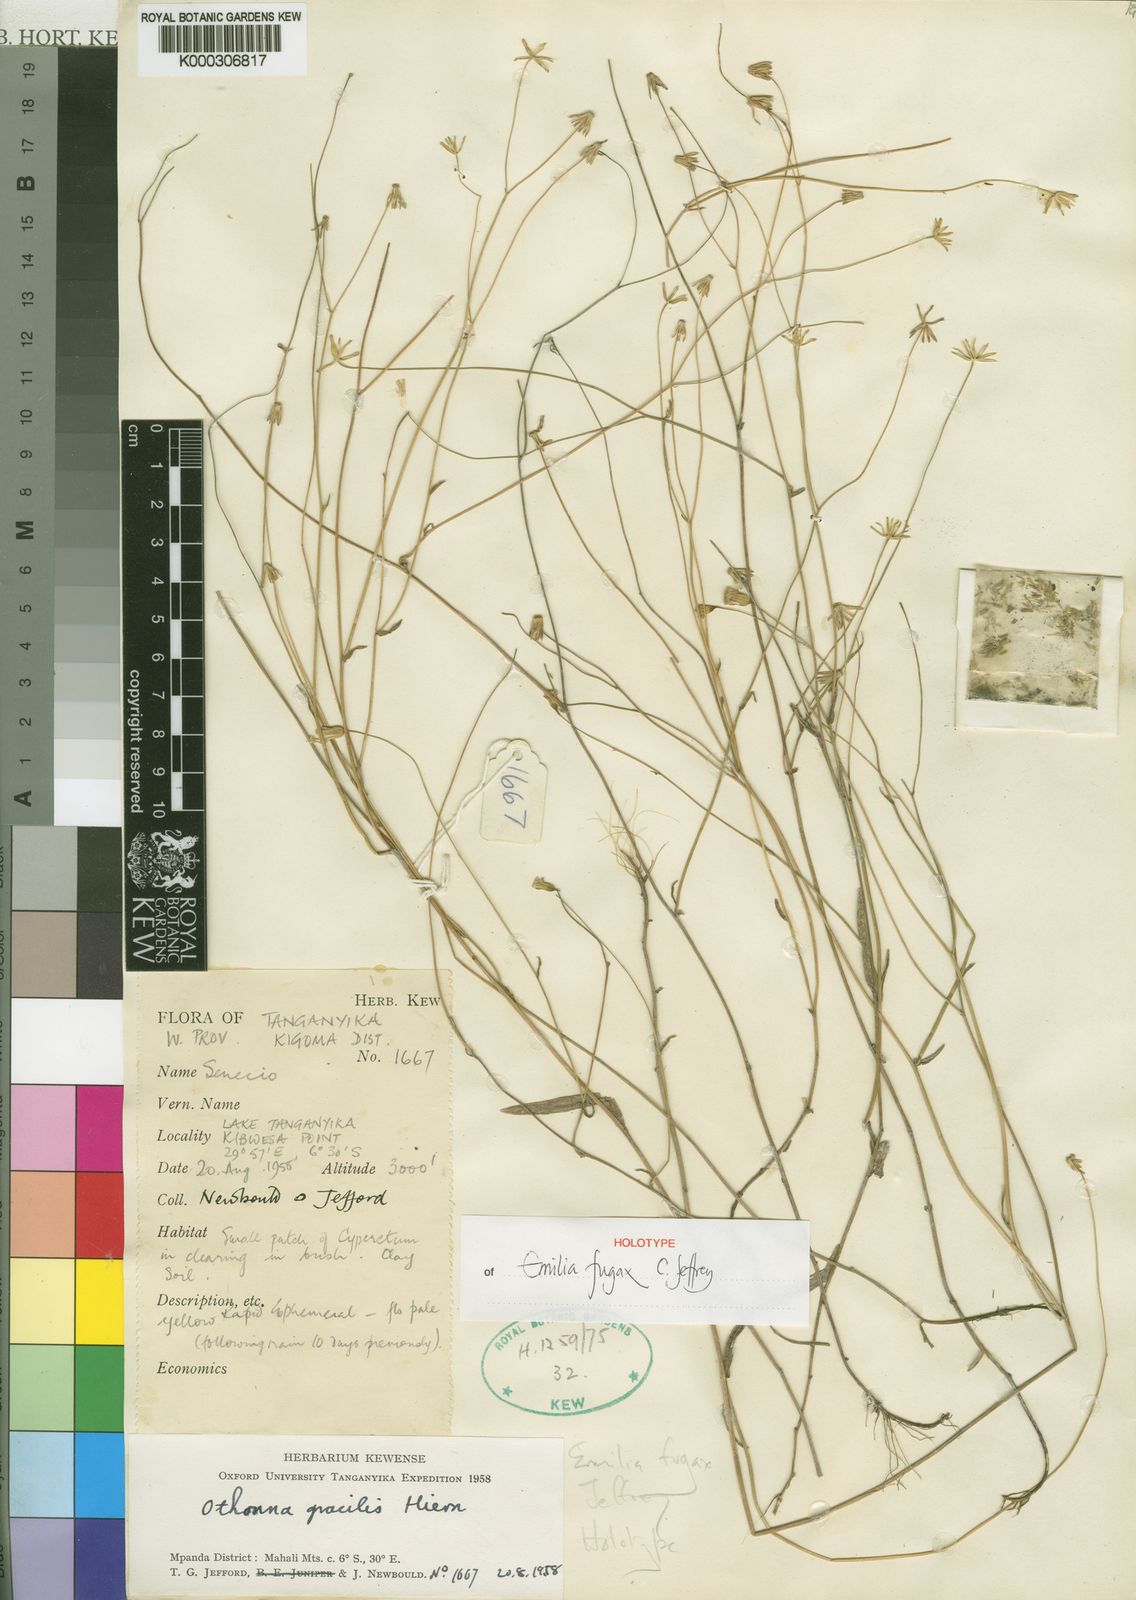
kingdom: Plantae
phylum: Tracheophyta
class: Magnoliopsida
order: Asterales
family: Asteraceae
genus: Emilia
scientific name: Emilia fugax
